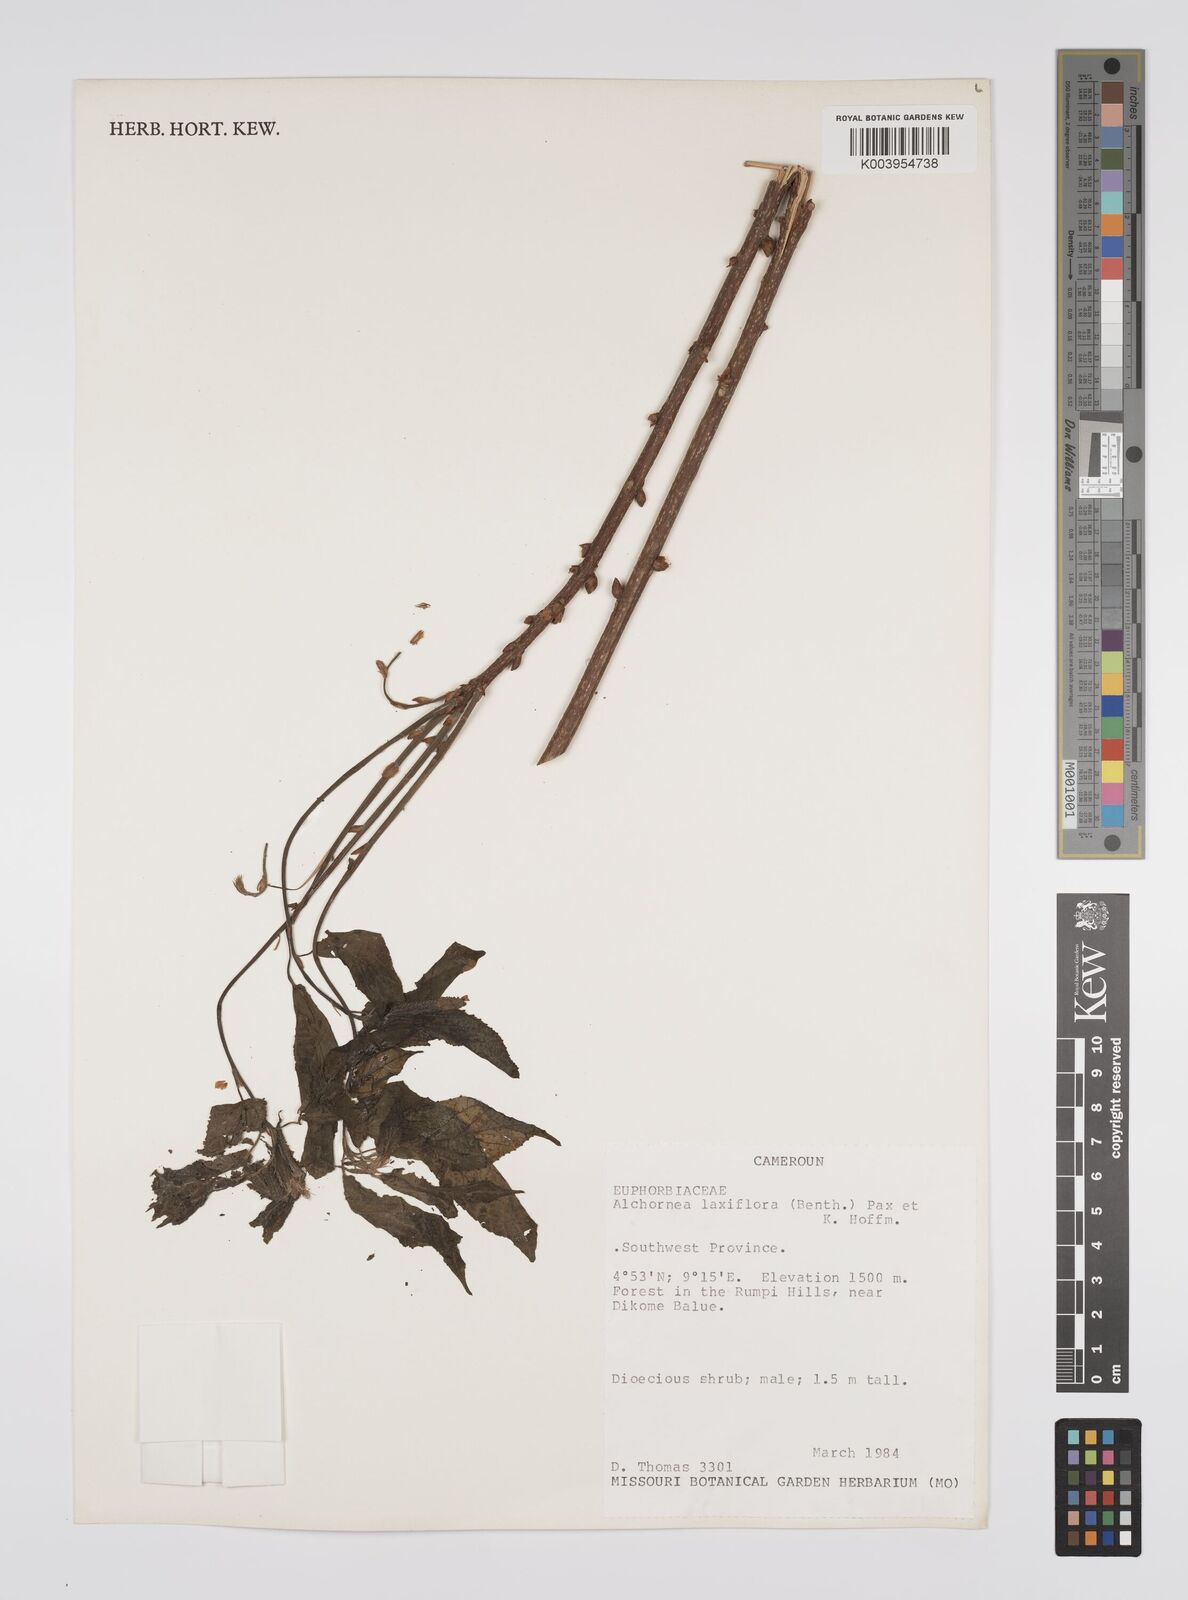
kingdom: Plantae
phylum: Tracheophyta
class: Magnoliopsida
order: Malpighiales
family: Euphorbiaceae
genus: Alchornea
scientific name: Alchornea laxiflora
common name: Lowveld bead-string
